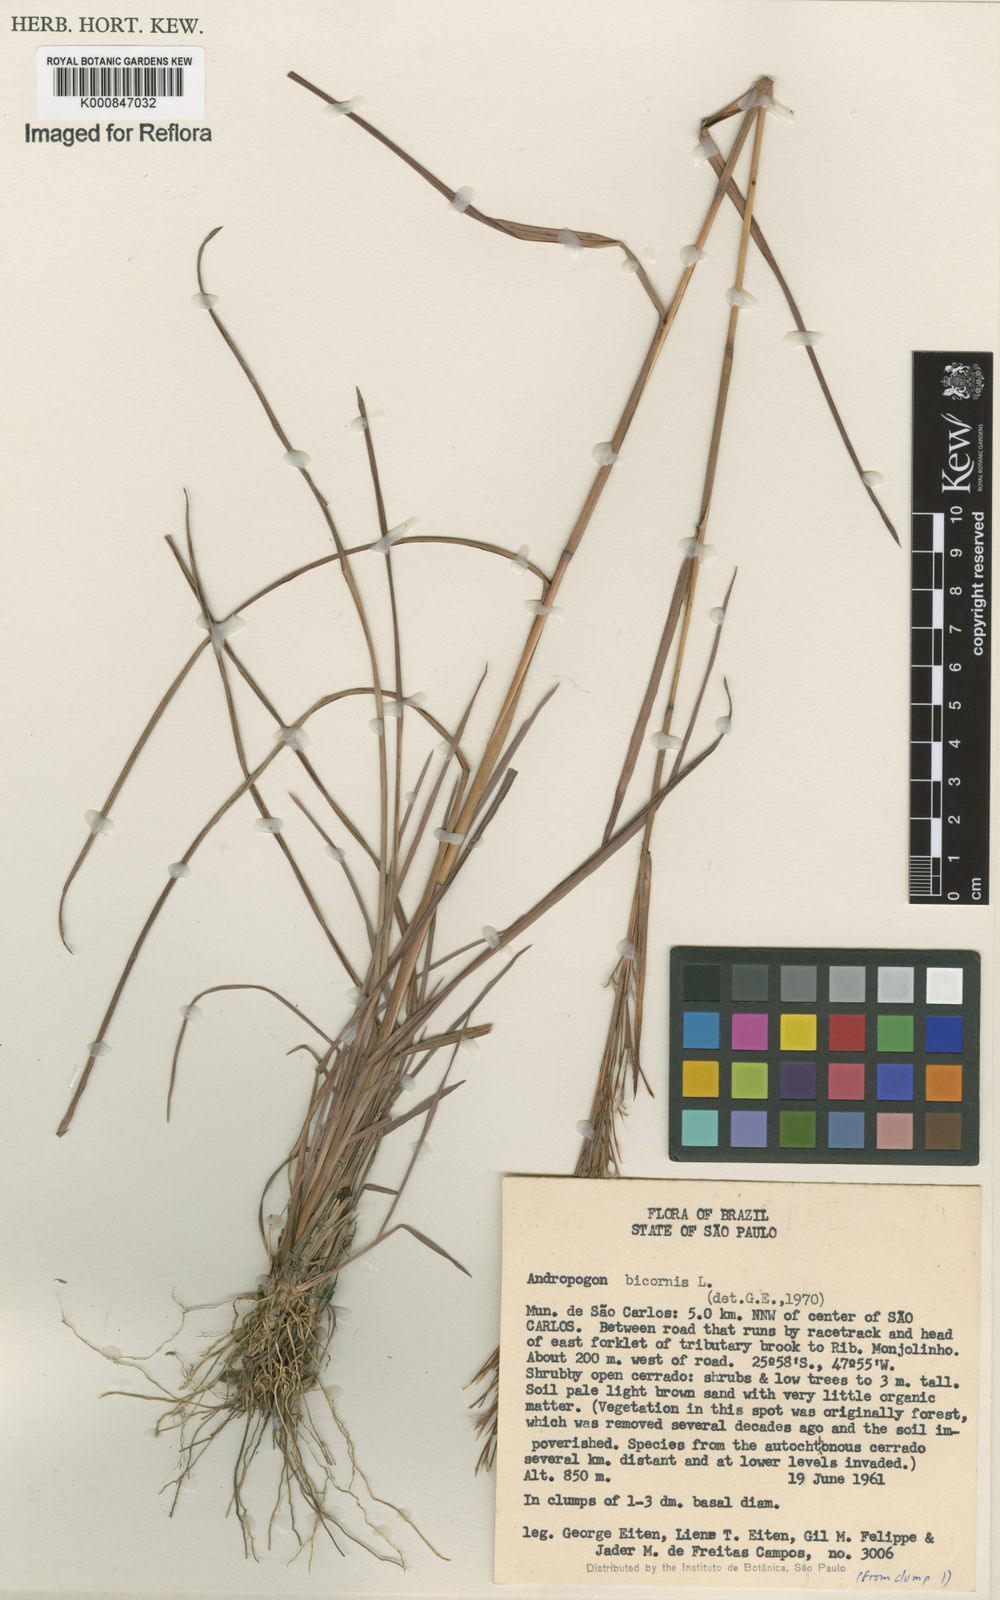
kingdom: Plantae
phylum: Tracheophyta
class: Liliopsida
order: Poales
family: Poaceae
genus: Andropogon
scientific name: Andropogon
